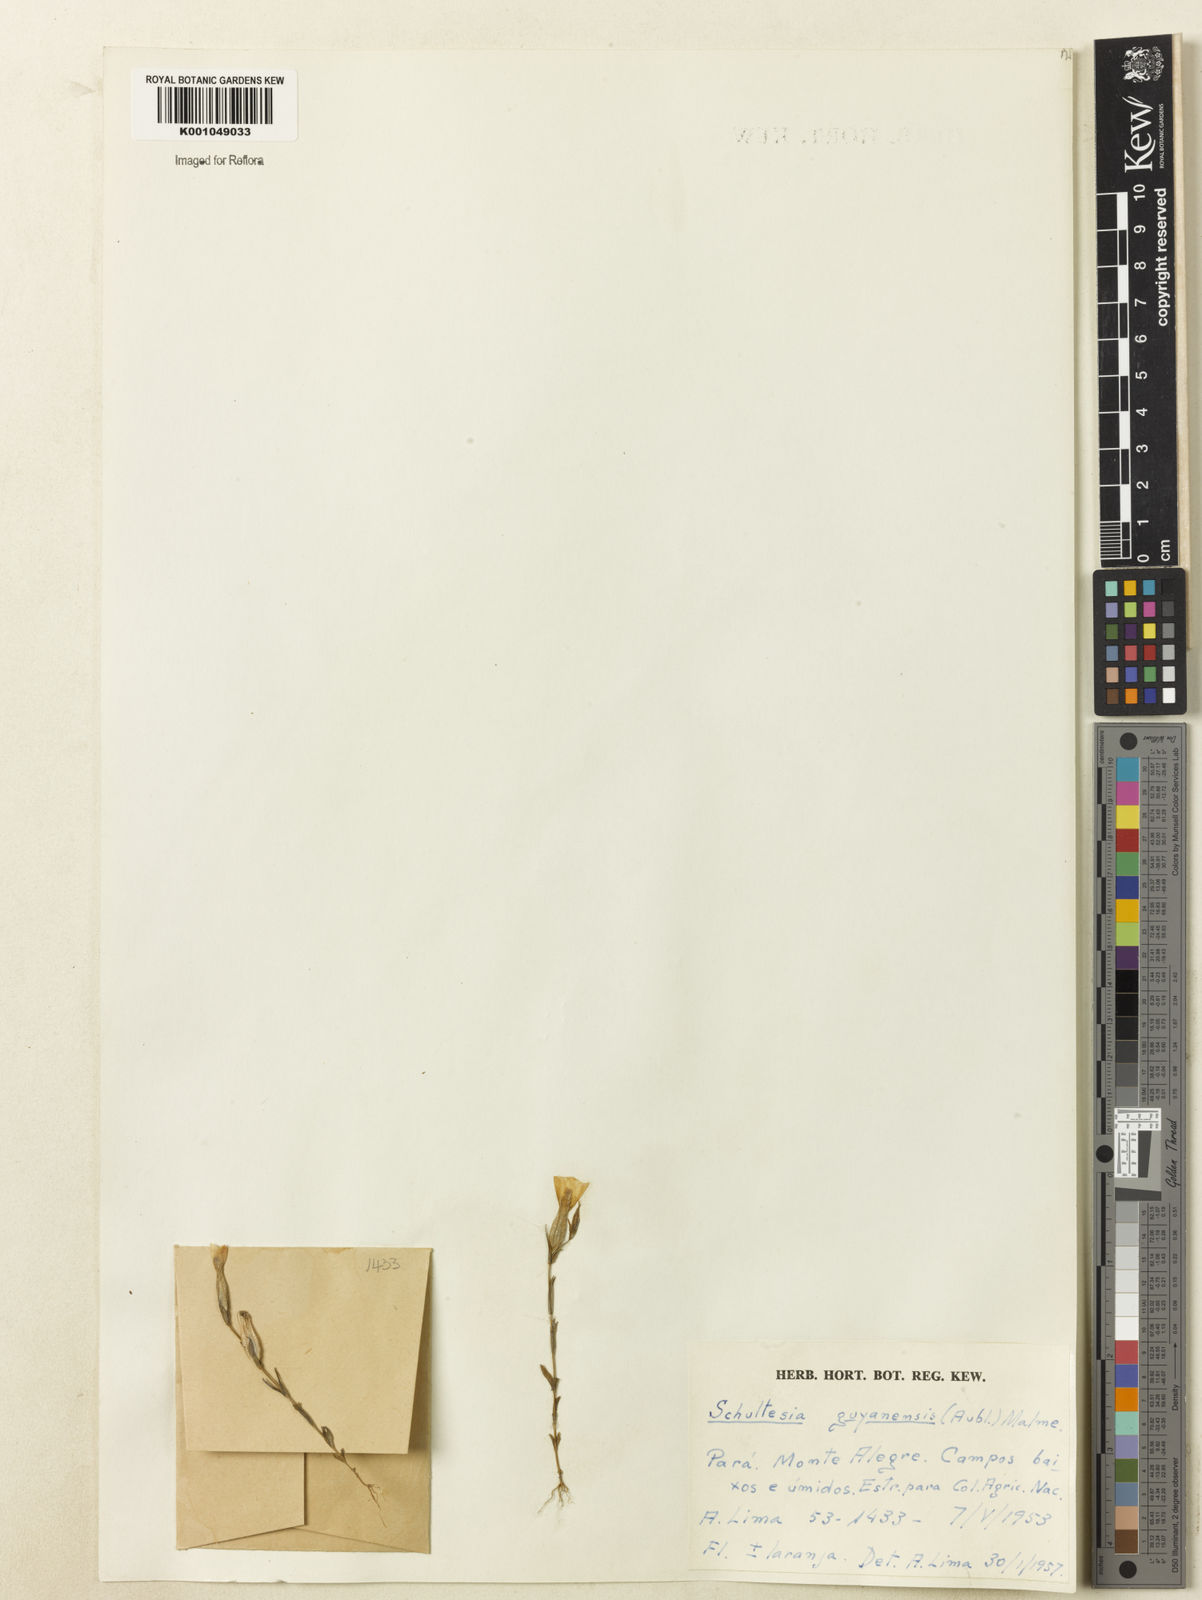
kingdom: Plantae
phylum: Tracheophyta
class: Magnoliopsida
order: Gentianales
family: Gentianaceae
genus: Schultesia
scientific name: Schultesia guianensis
